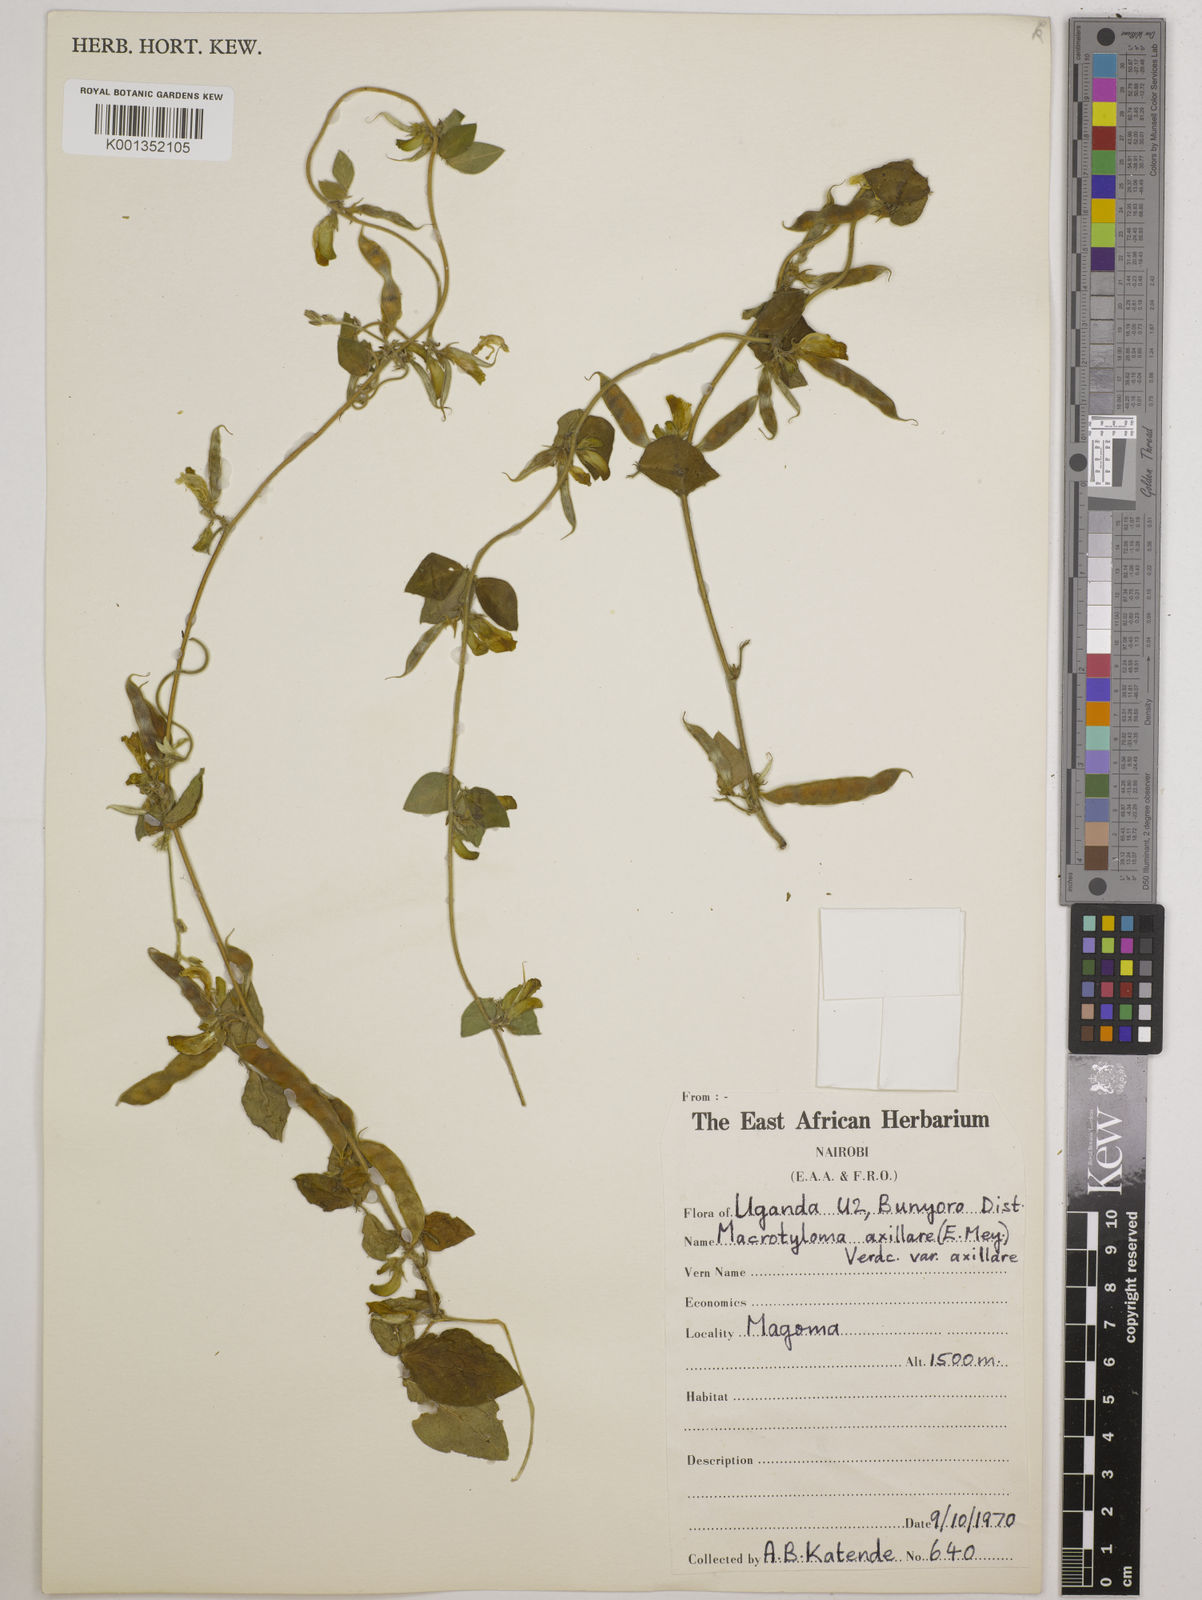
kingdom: Plantae
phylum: Tracheophyta
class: Magnoliopsida
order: Fabales
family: Fabaceae
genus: Macrotyloma
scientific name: Macrotyloma axillare
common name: Perennial horsegram
